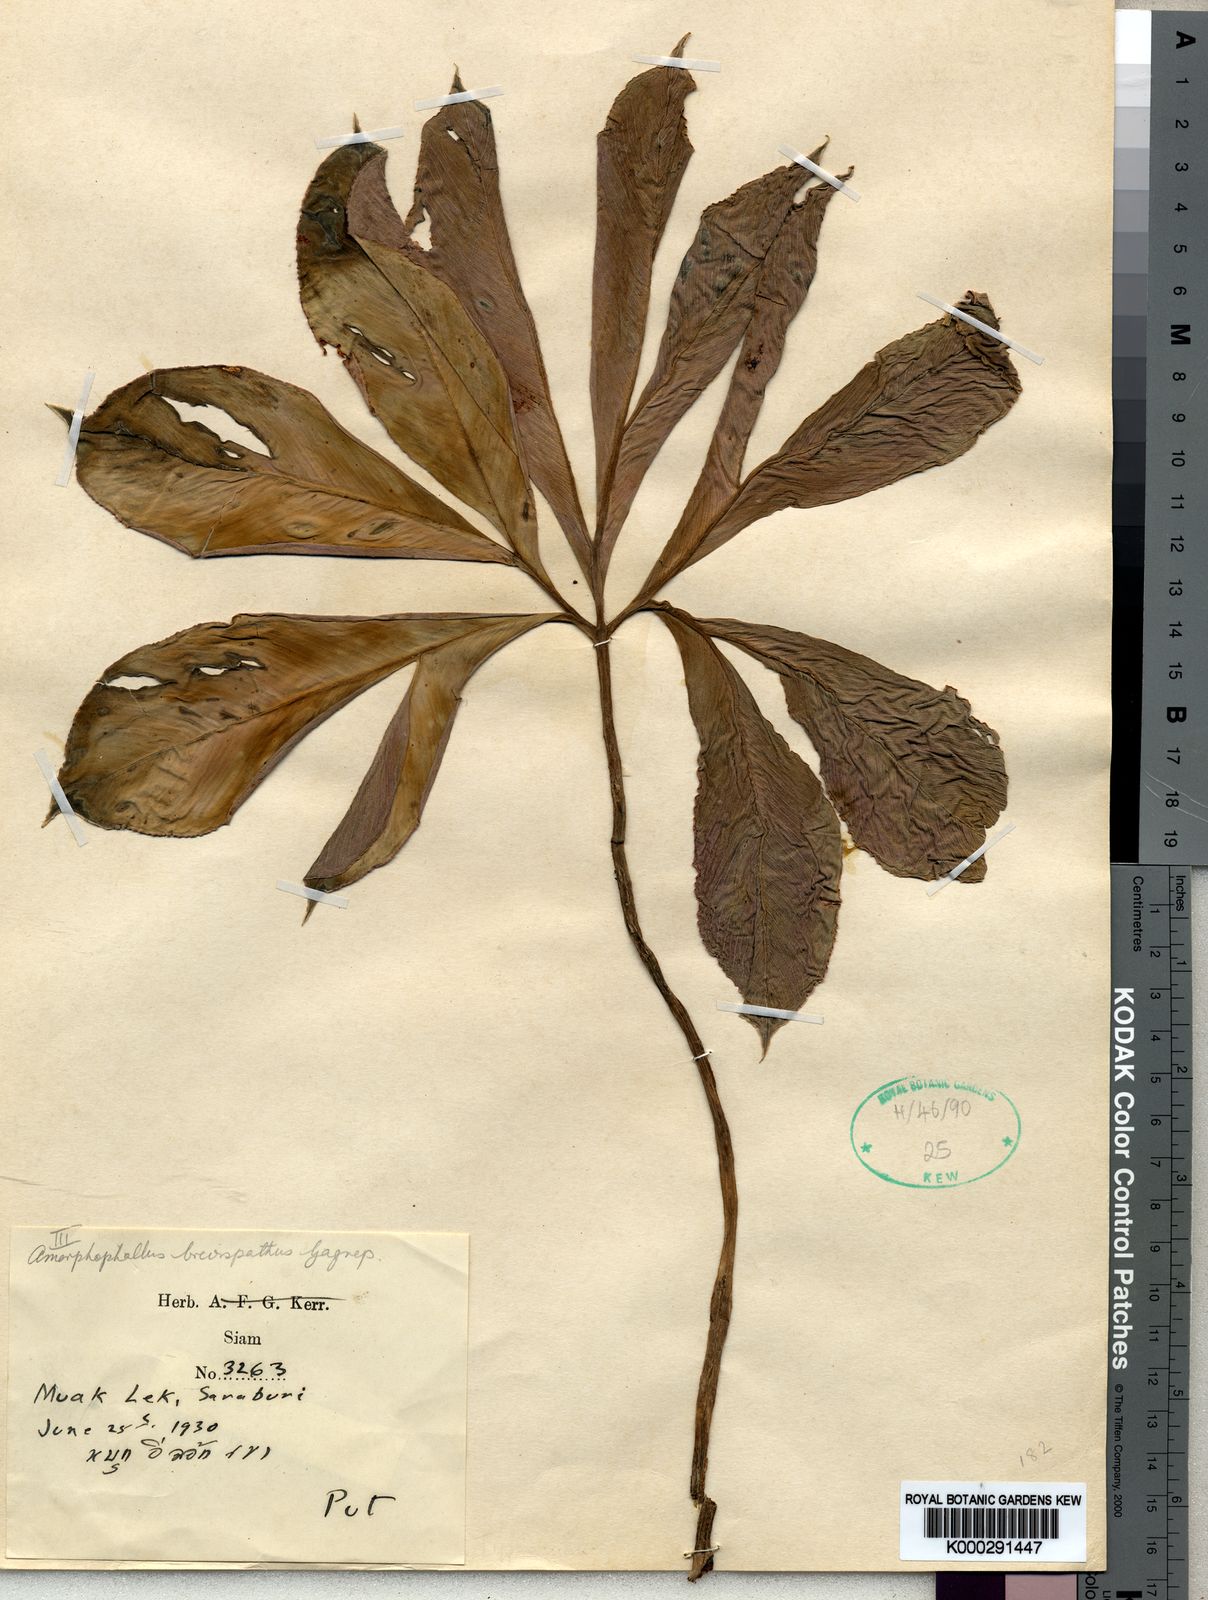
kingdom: Plantae
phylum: Tracheophyta
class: Liliopsida
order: Alismatales
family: Araceae
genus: Amorphophallus
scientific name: Amorphophallus brevispathus
